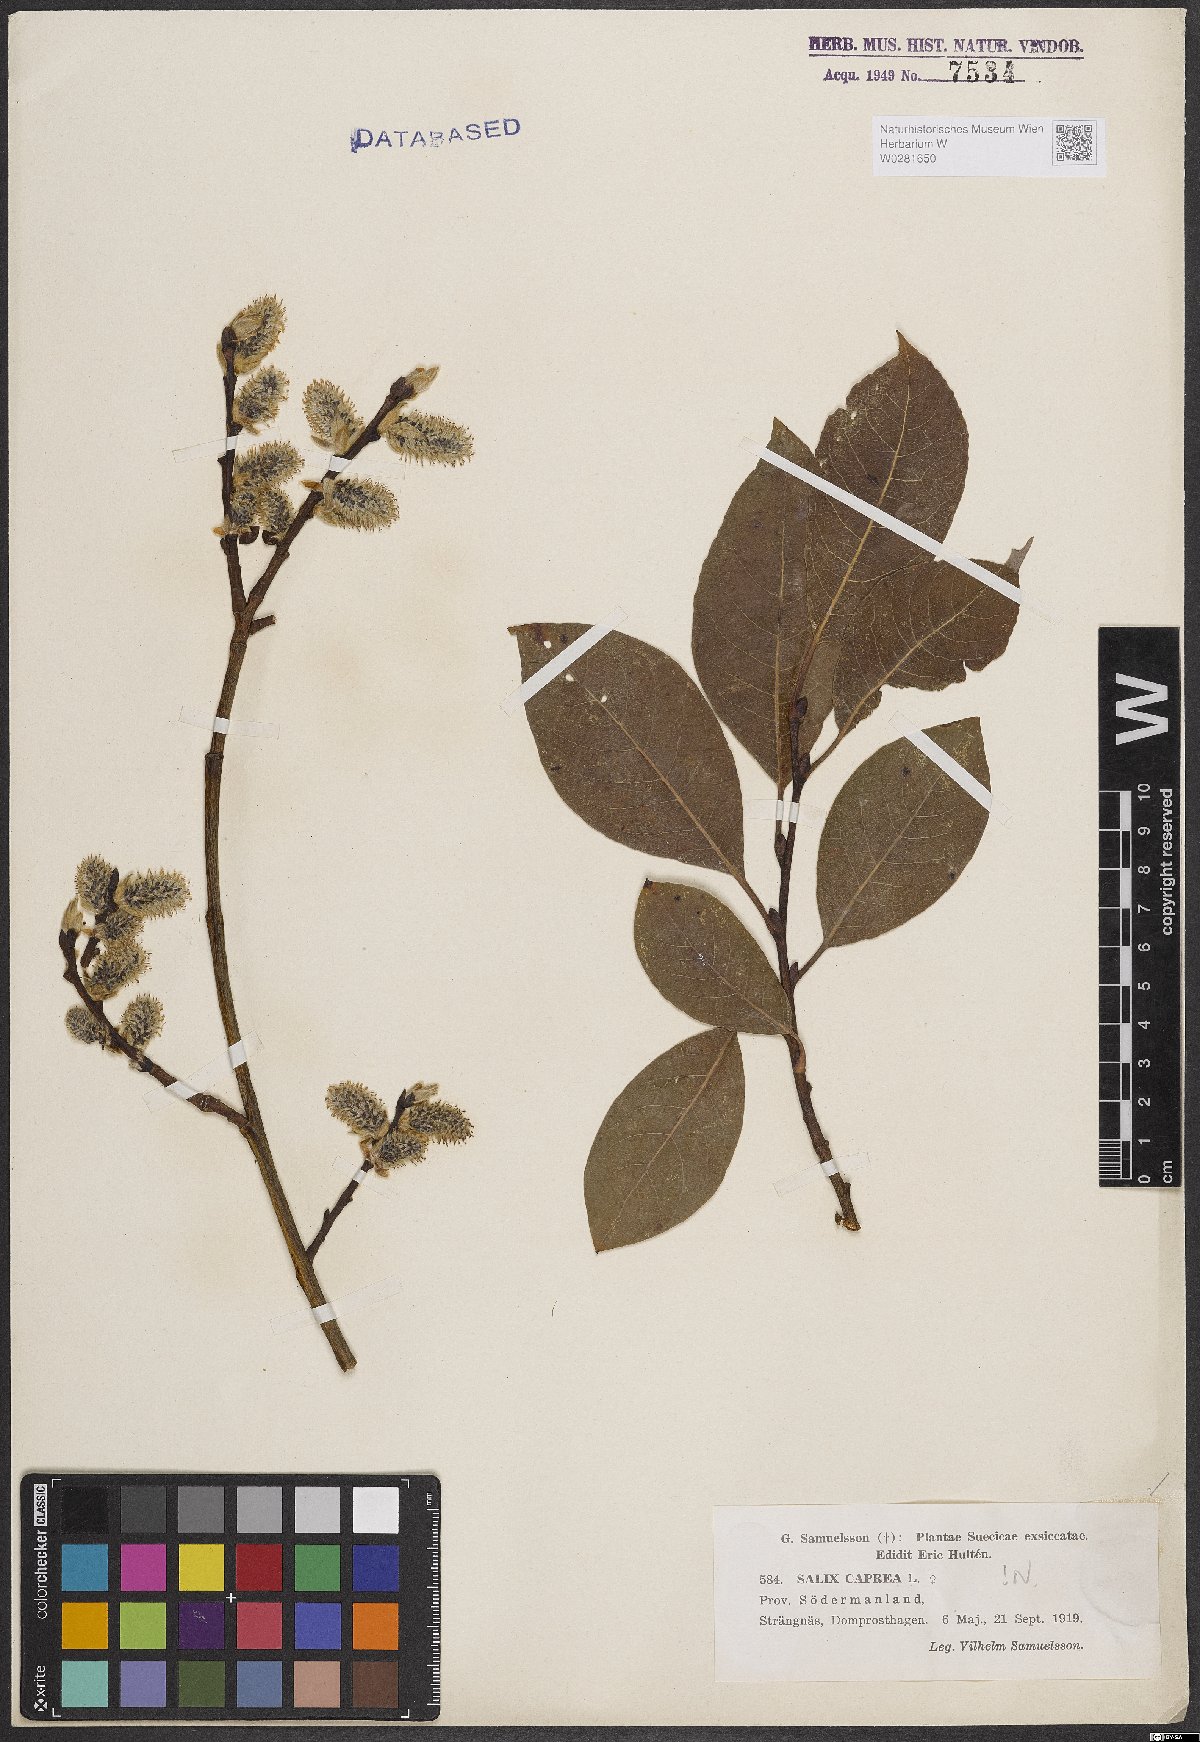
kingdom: Plantae
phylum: Tracheophyta
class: Magnoliopsida
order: Malpighiales
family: Salicaceae
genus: Salix
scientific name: Salix caprea
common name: Goat willow
